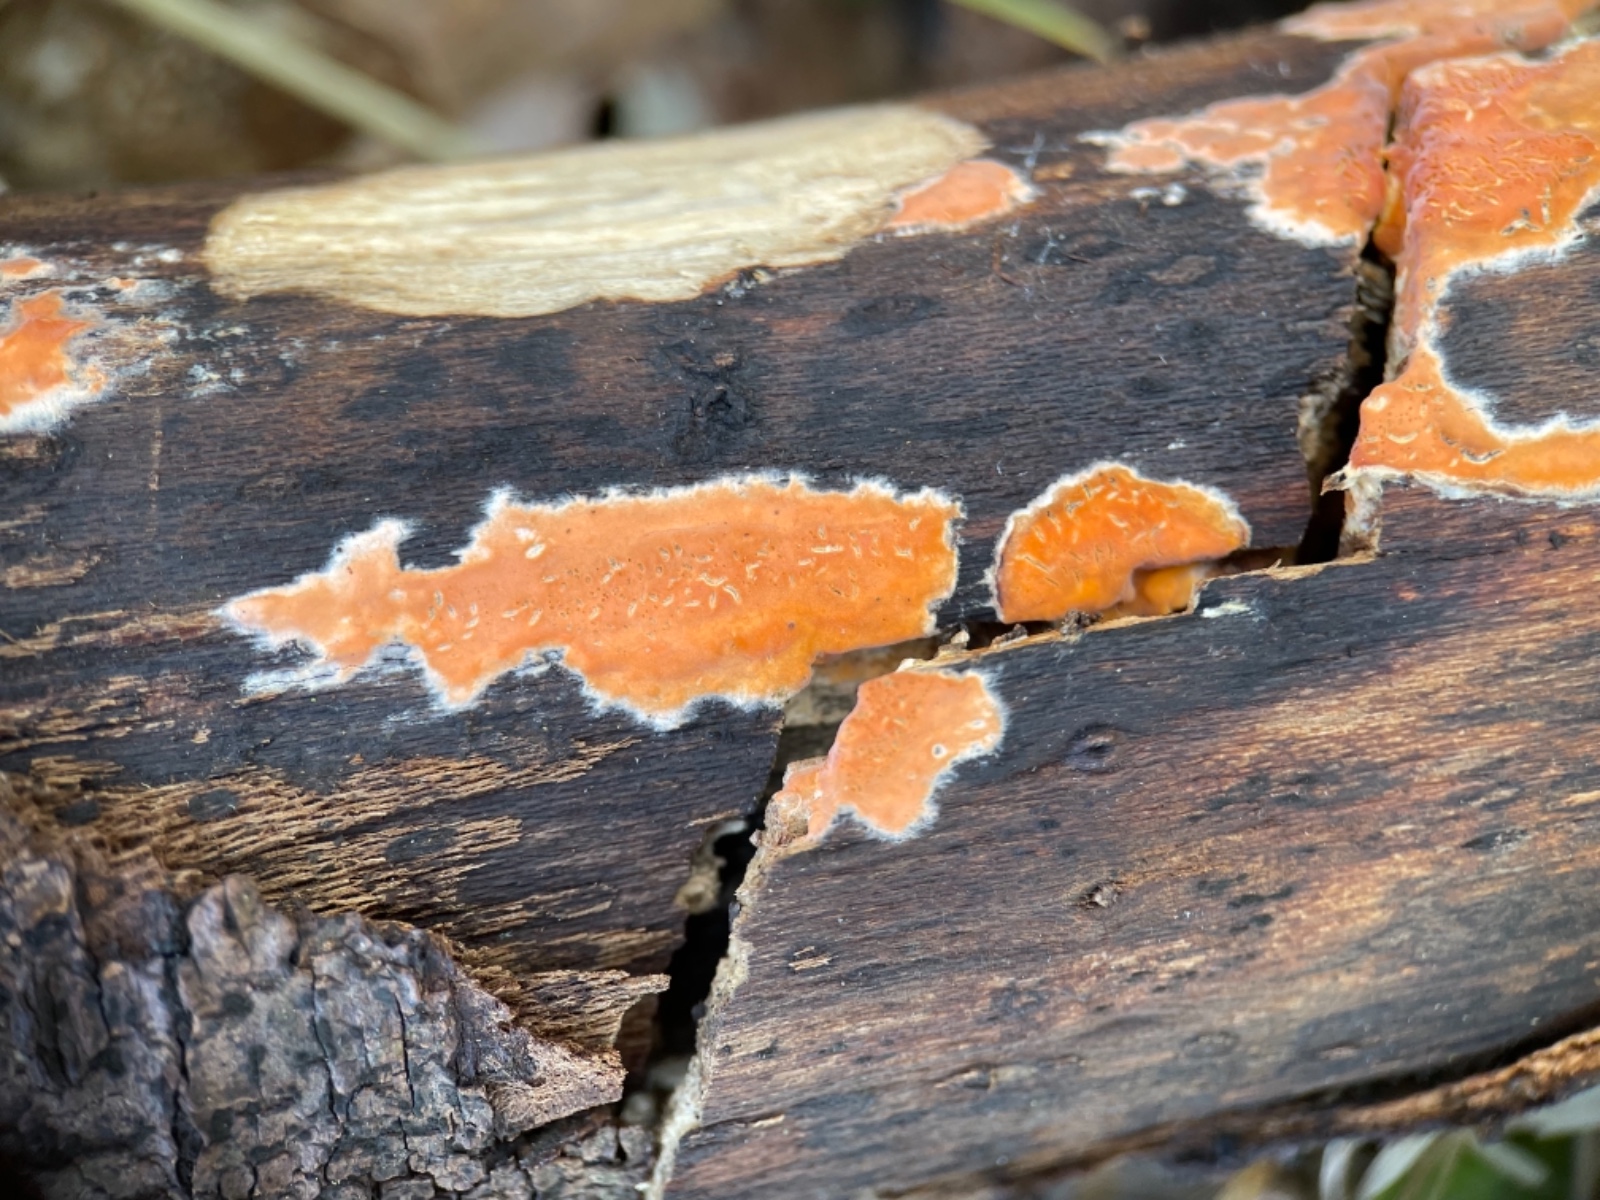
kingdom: Fungi
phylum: Basidiomycota
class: Agaricomycetes
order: Russulales
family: Peniophoraceae
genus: Peniophora
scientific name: Peniophora incarnata
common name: laksefarvet voksskind
